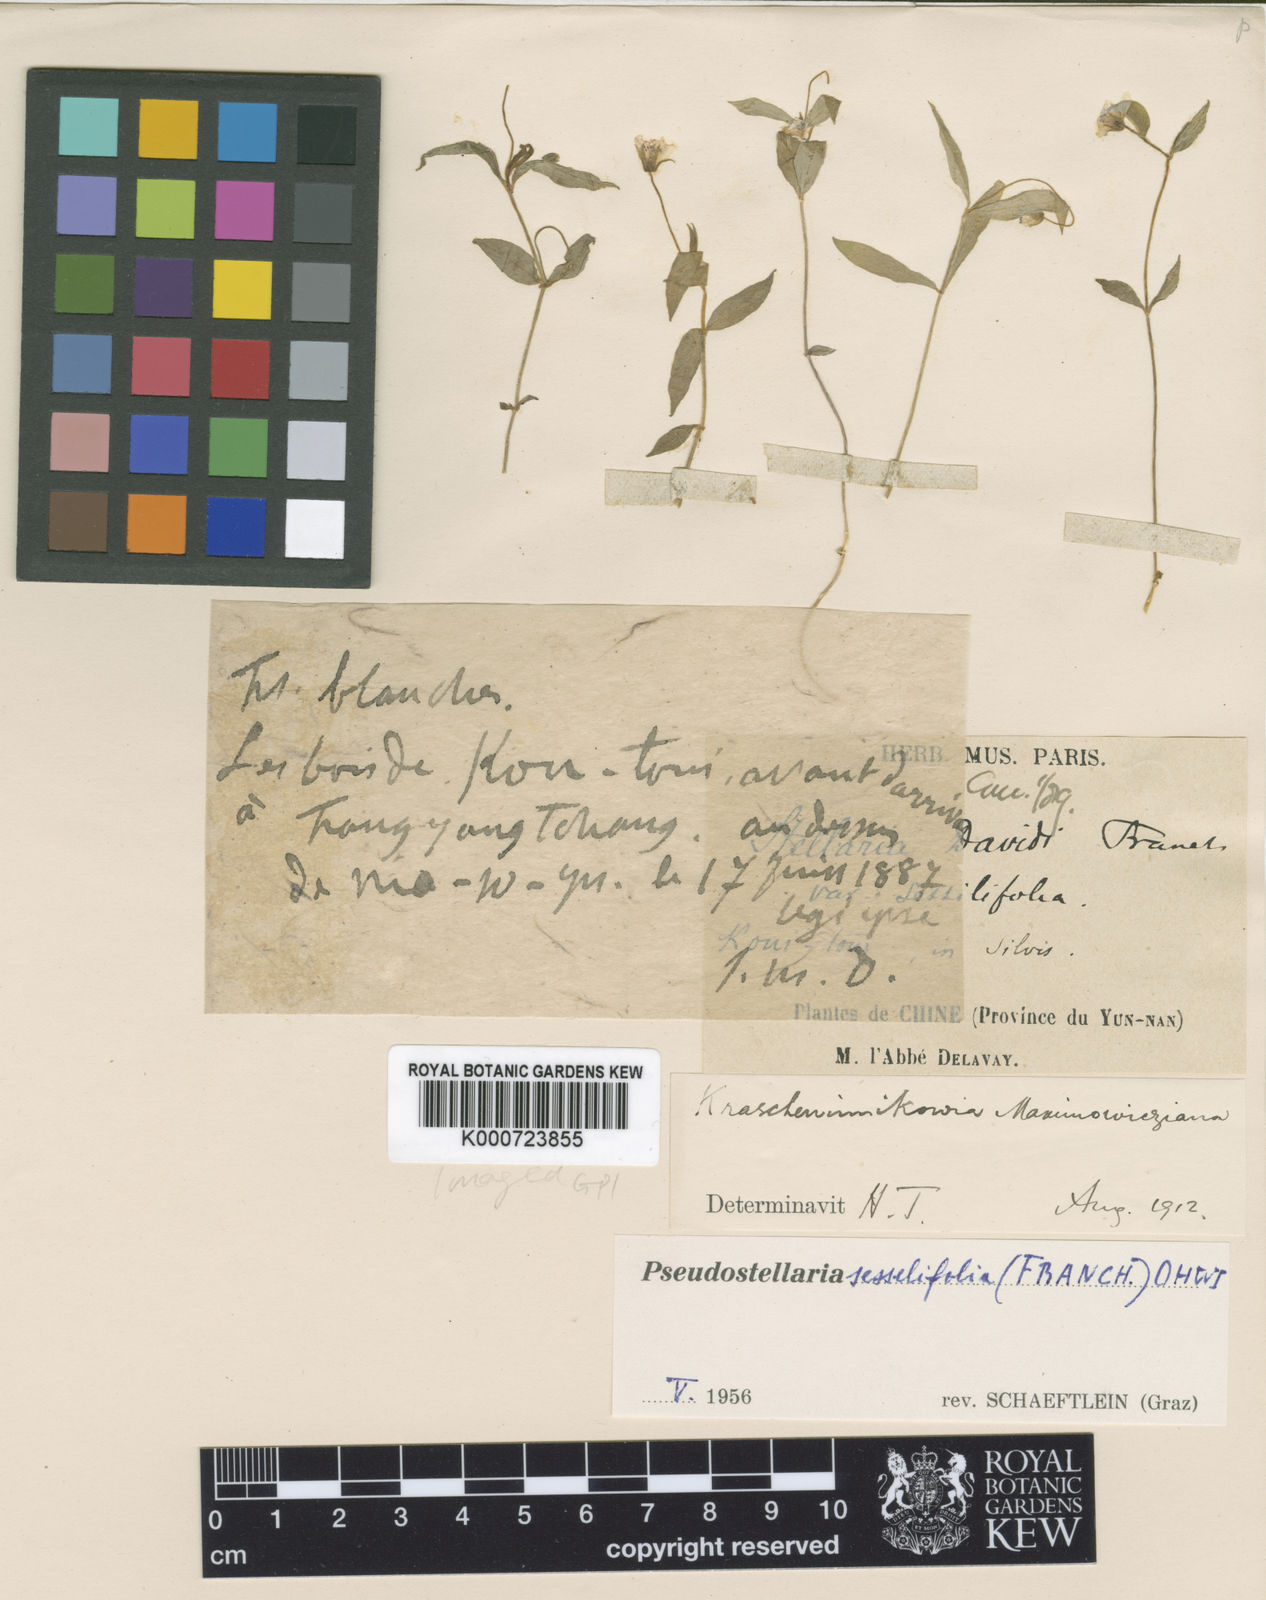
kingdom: Plantae
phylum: Tracheophyta
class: Magnoliopsida
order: Caryophyllales
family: Caryophyllaceae
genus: Pseudostellaria
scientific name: Pseudostellaria davidii
